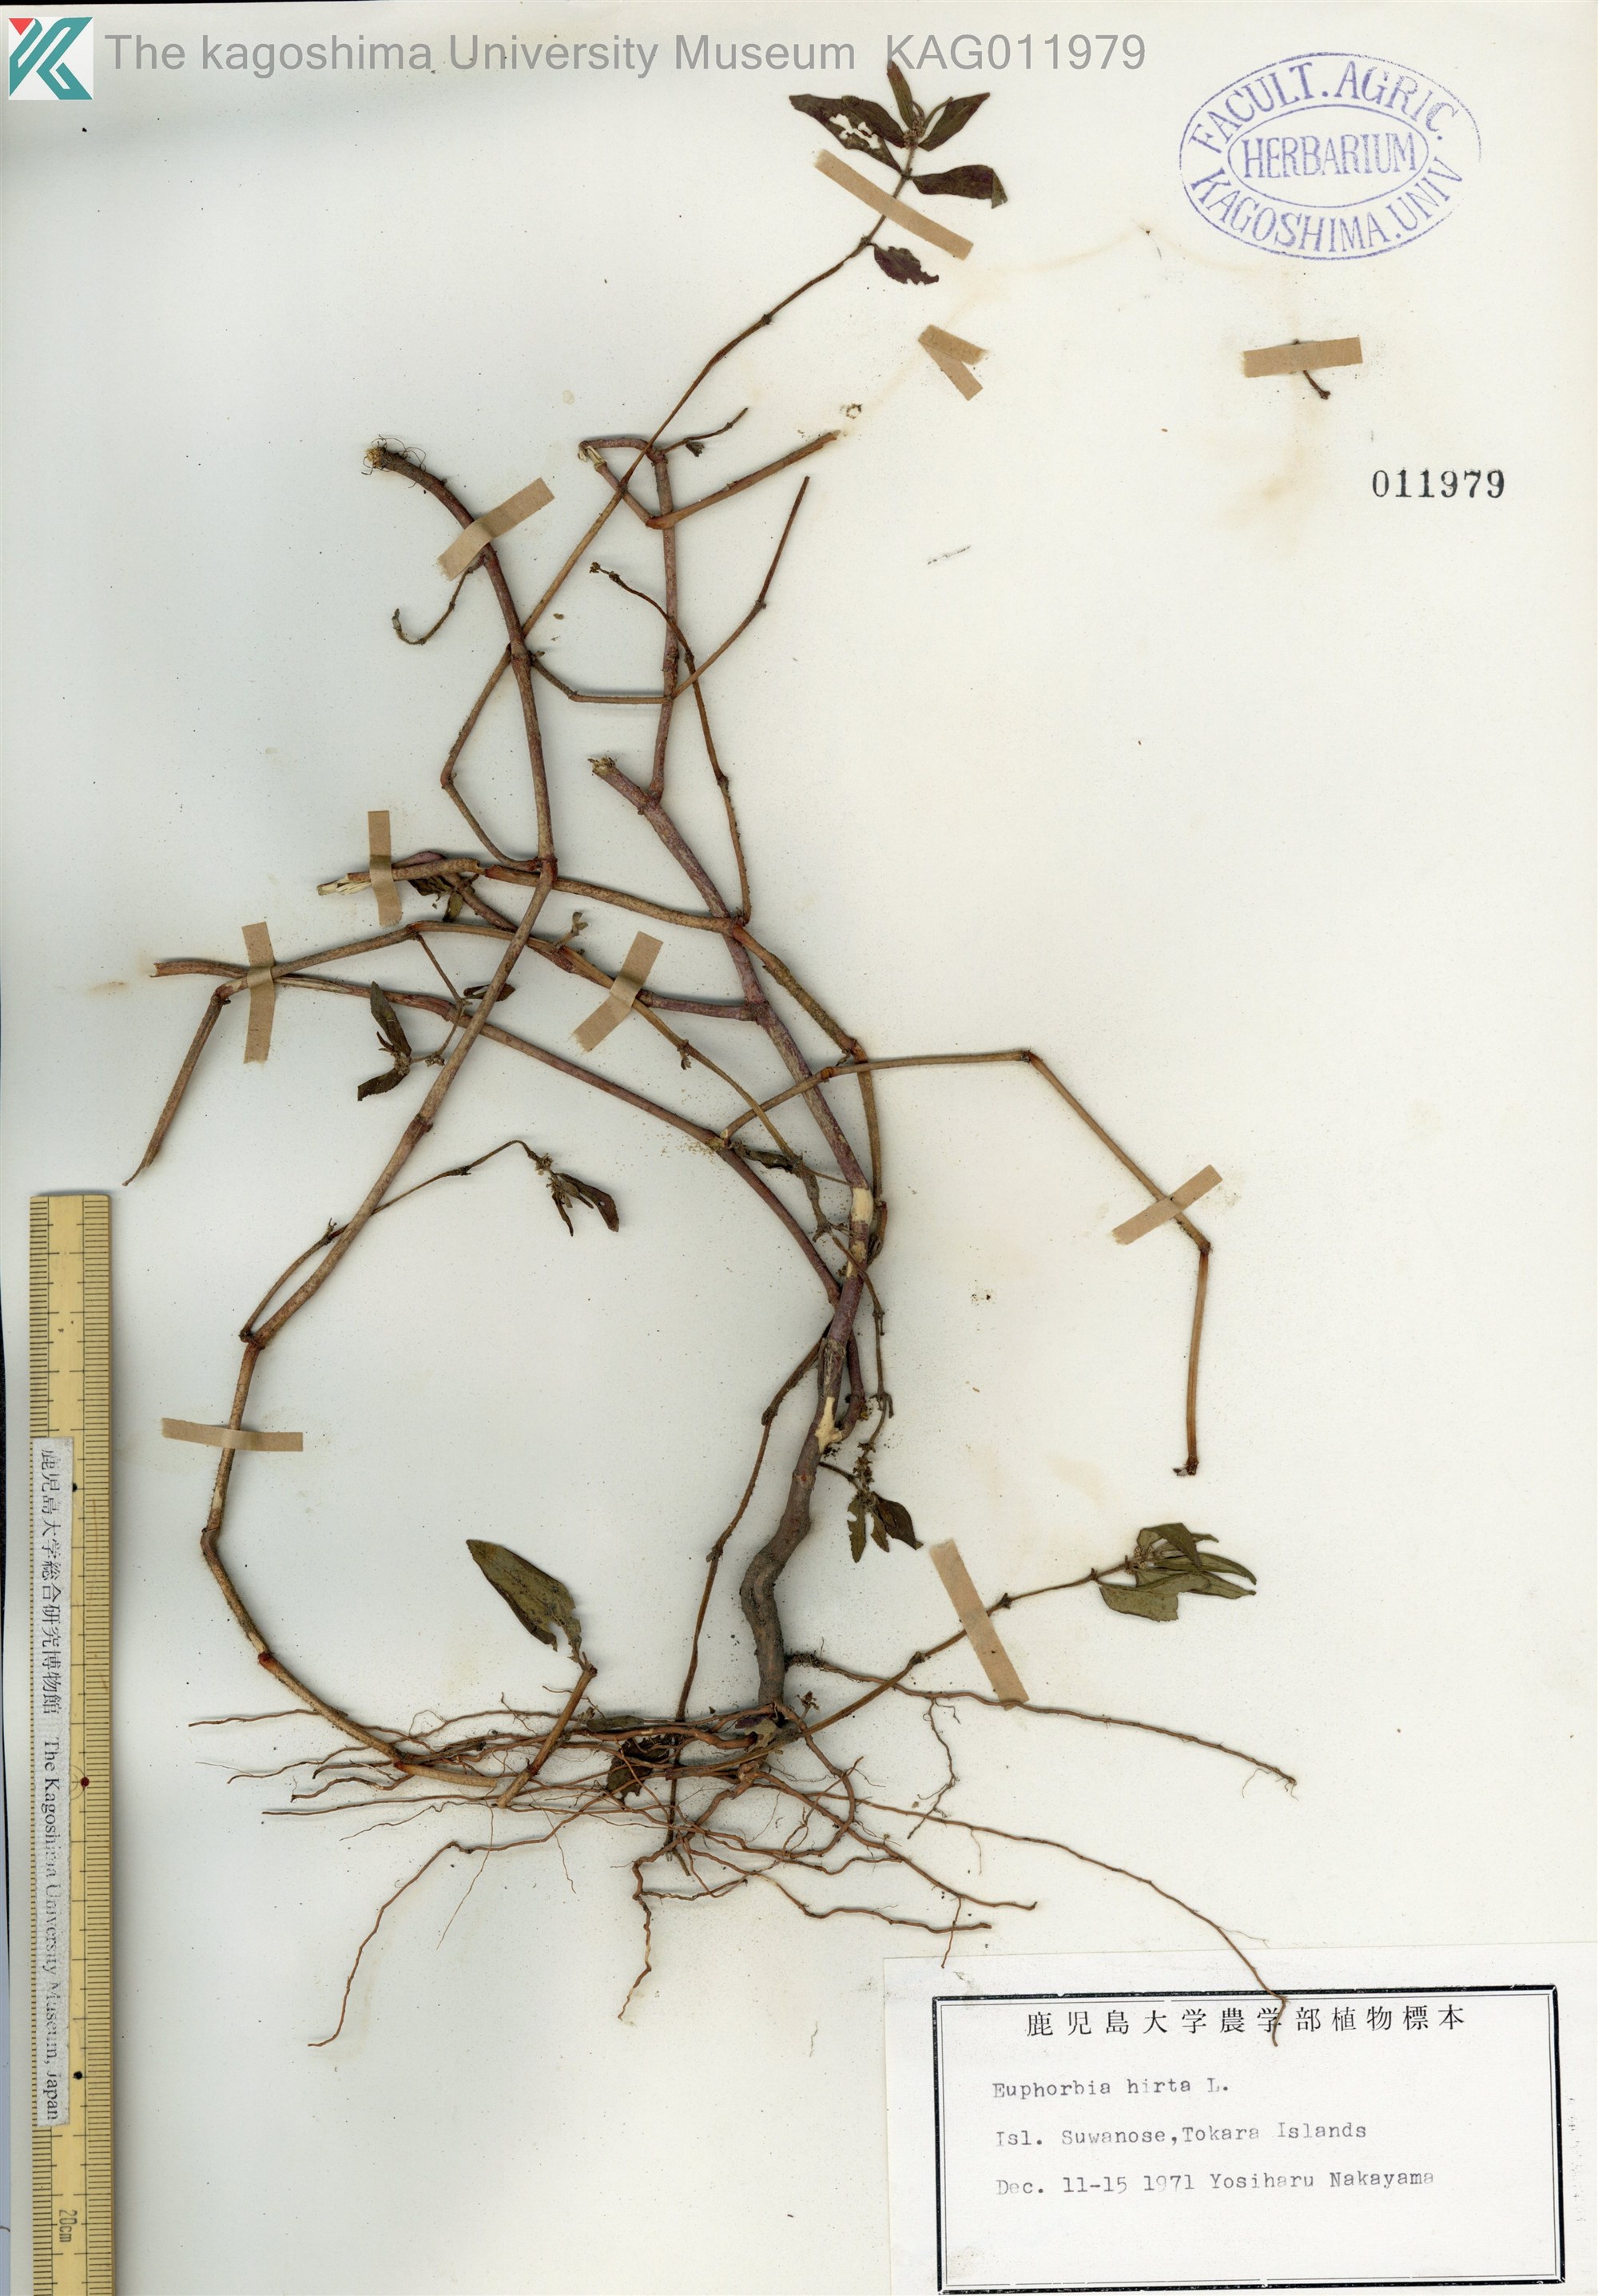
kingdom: Plantae
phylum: Tracheophyta
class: Magnoliopsida
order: Malpighiales
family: Euphorbiaceae
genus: Euphorbia
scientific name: Euphorbia hirta
